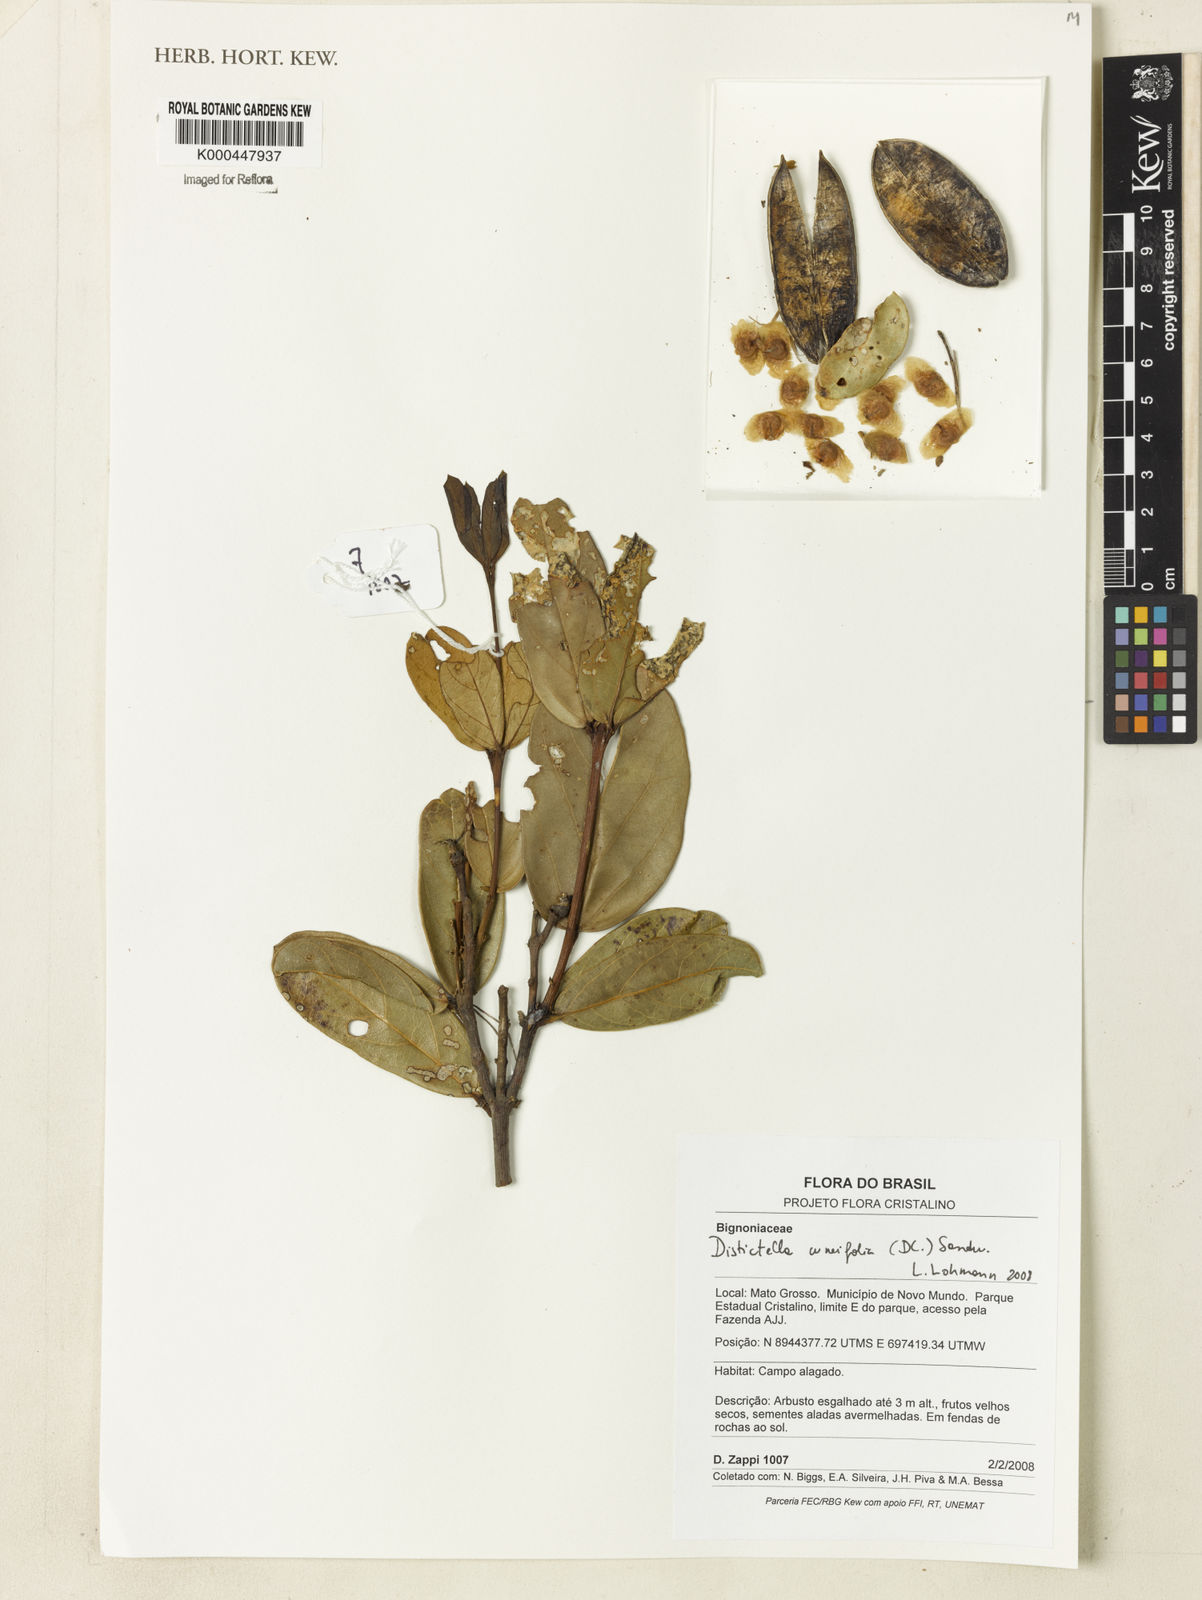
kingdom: Plantae
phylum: Tracheophyta
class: Magnoliopsida
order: Lamiales
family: Bignoniaceae
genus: Amphilophium
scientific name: Amphilophium cuneifolium
